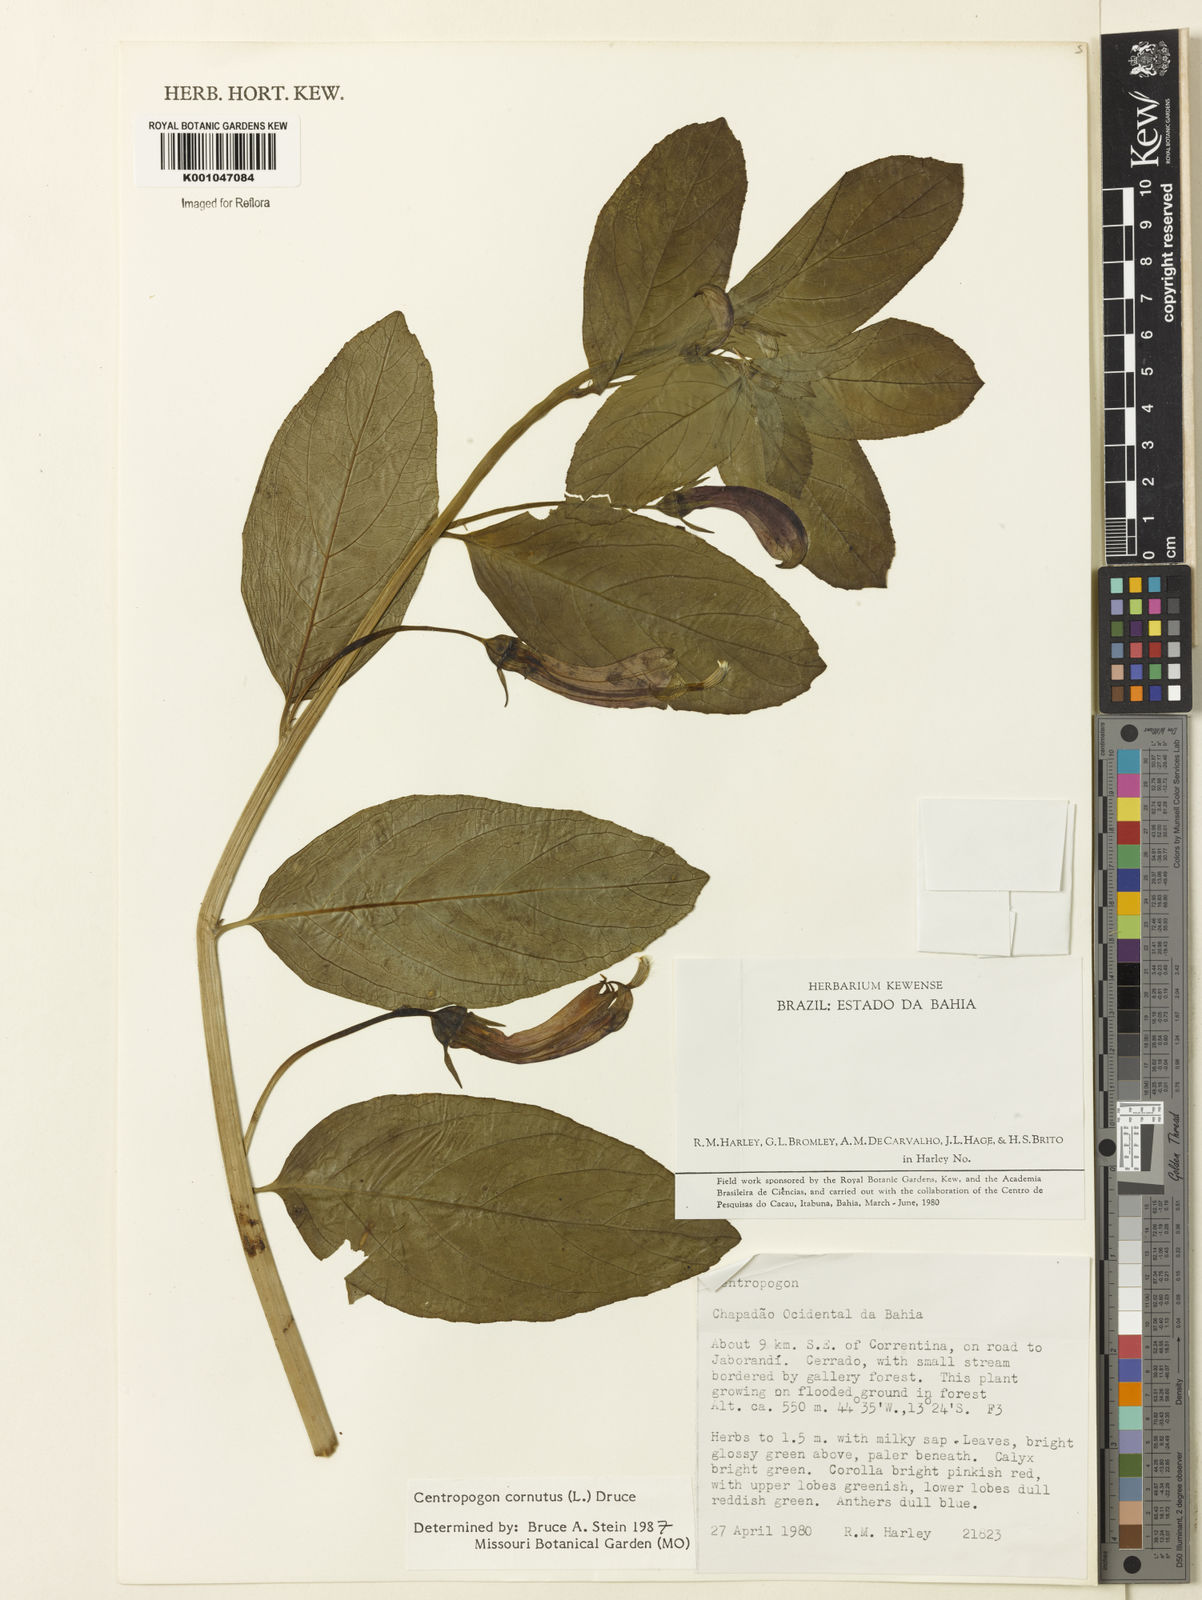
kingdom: Plantae
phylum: Tracheophyta
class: Magnoliopsida
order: Asterales
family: Campanulaceae
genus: Centropogon
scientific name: Centropogon cornutus
